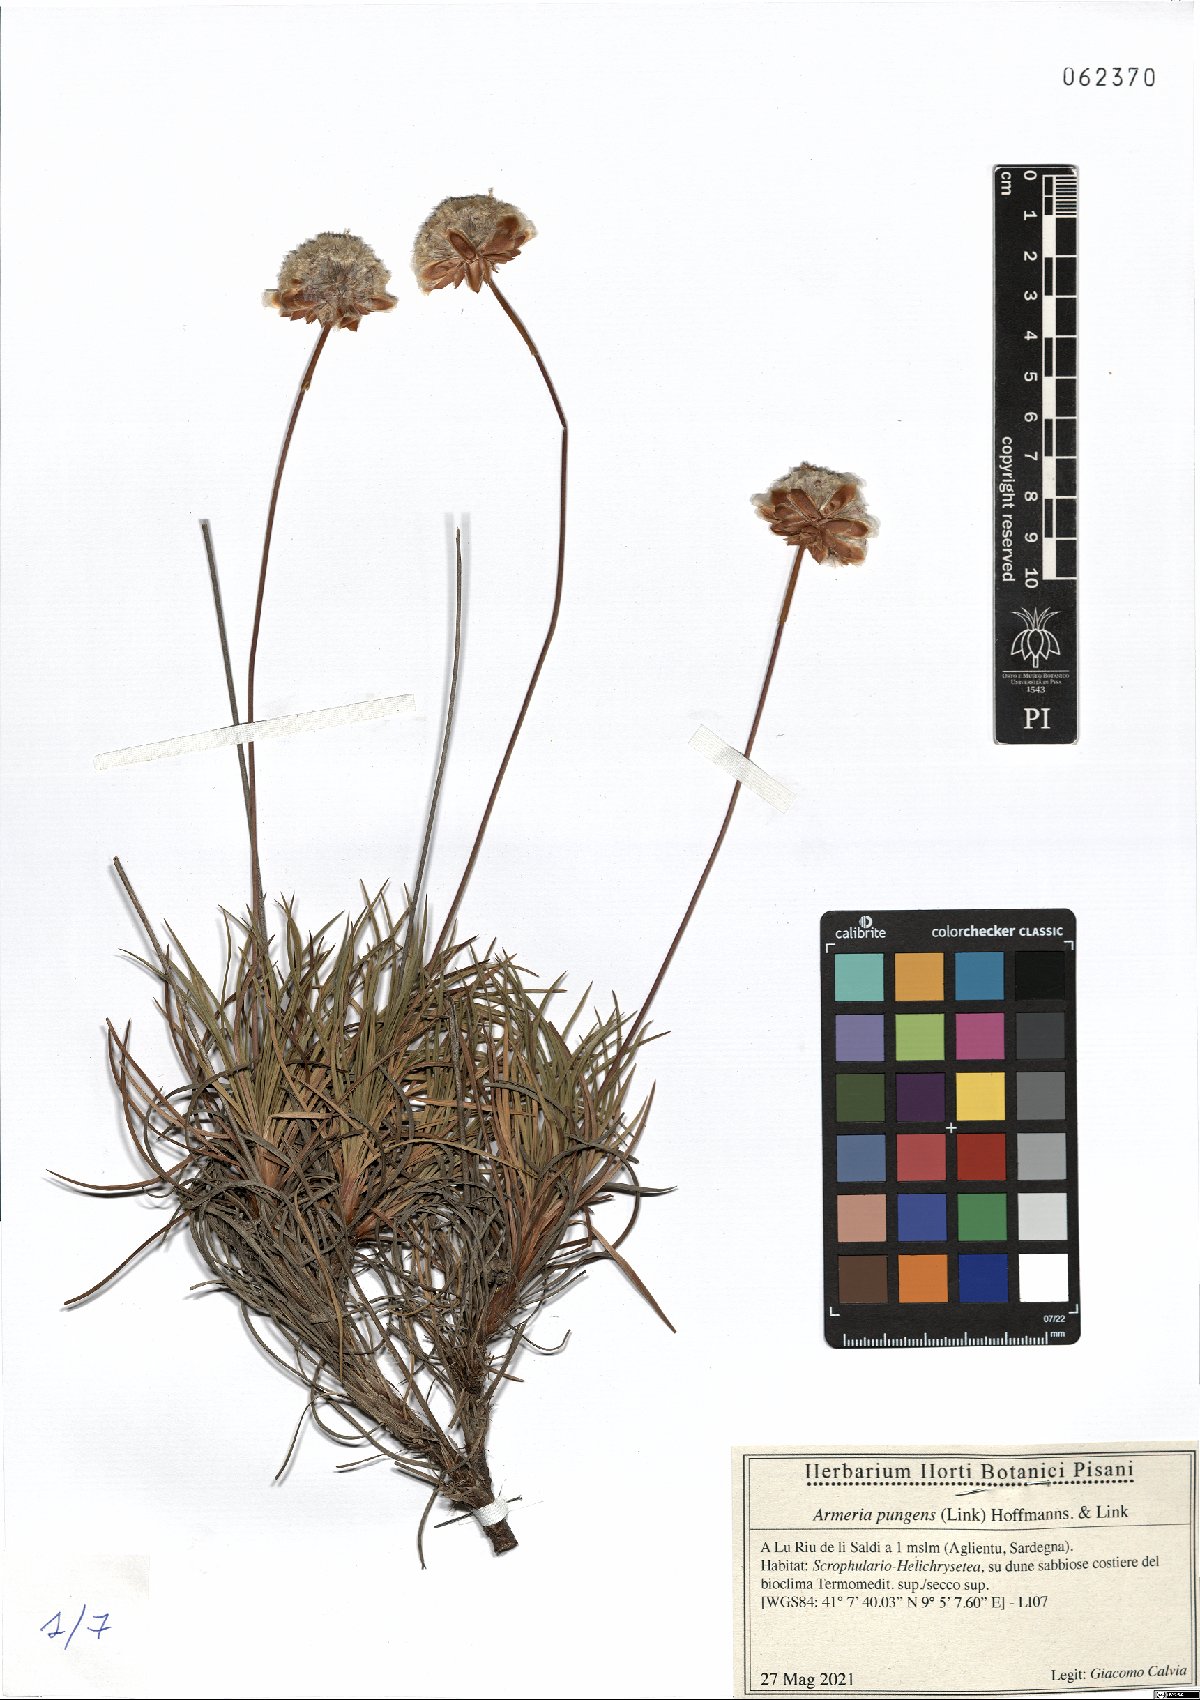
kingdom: Plantae
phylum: Tracheophyta
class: Magnoliopsida
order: Caryophyllales
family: Plumbaginaceae
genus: Armeria
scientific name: Armeria pungens
